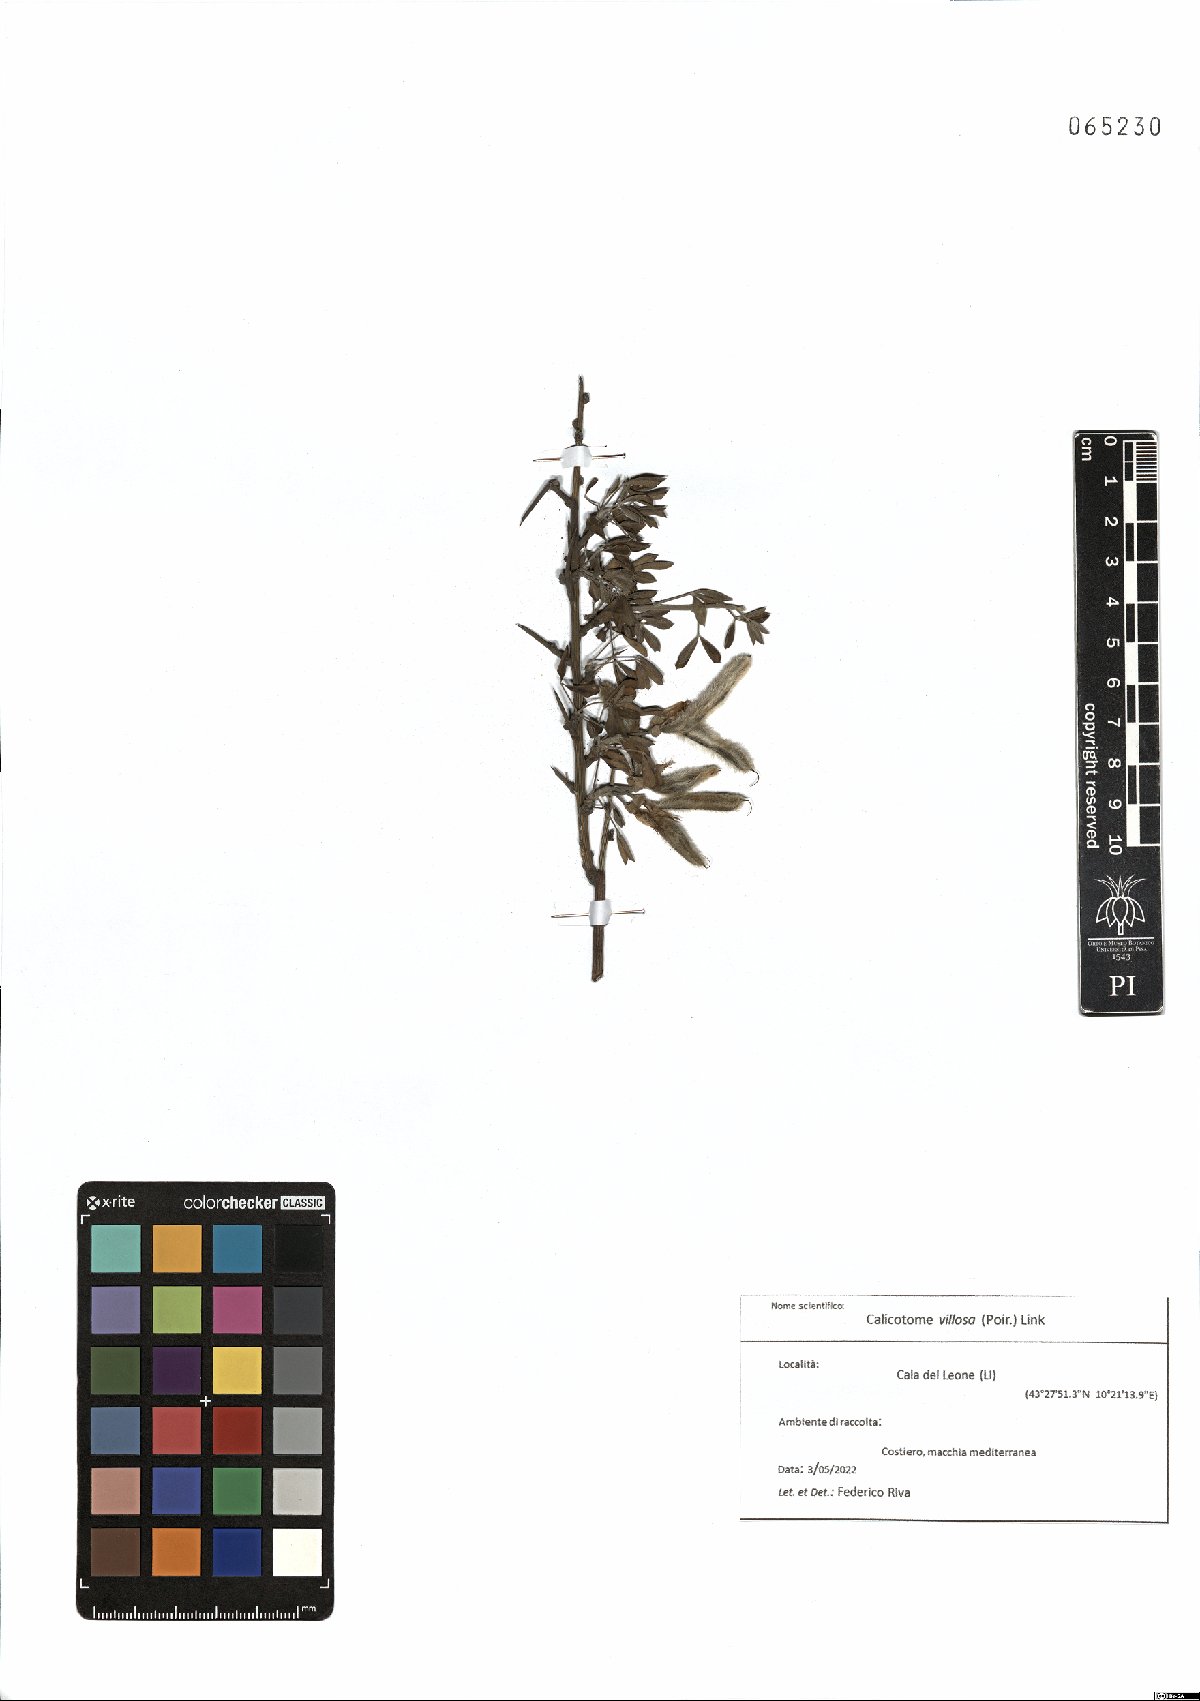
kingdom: Plantae
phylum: Tracheophyta
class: Magnoliopsida
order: Fabales
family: Fabaceae
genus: Calicotome
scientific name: Calicotome villosa
